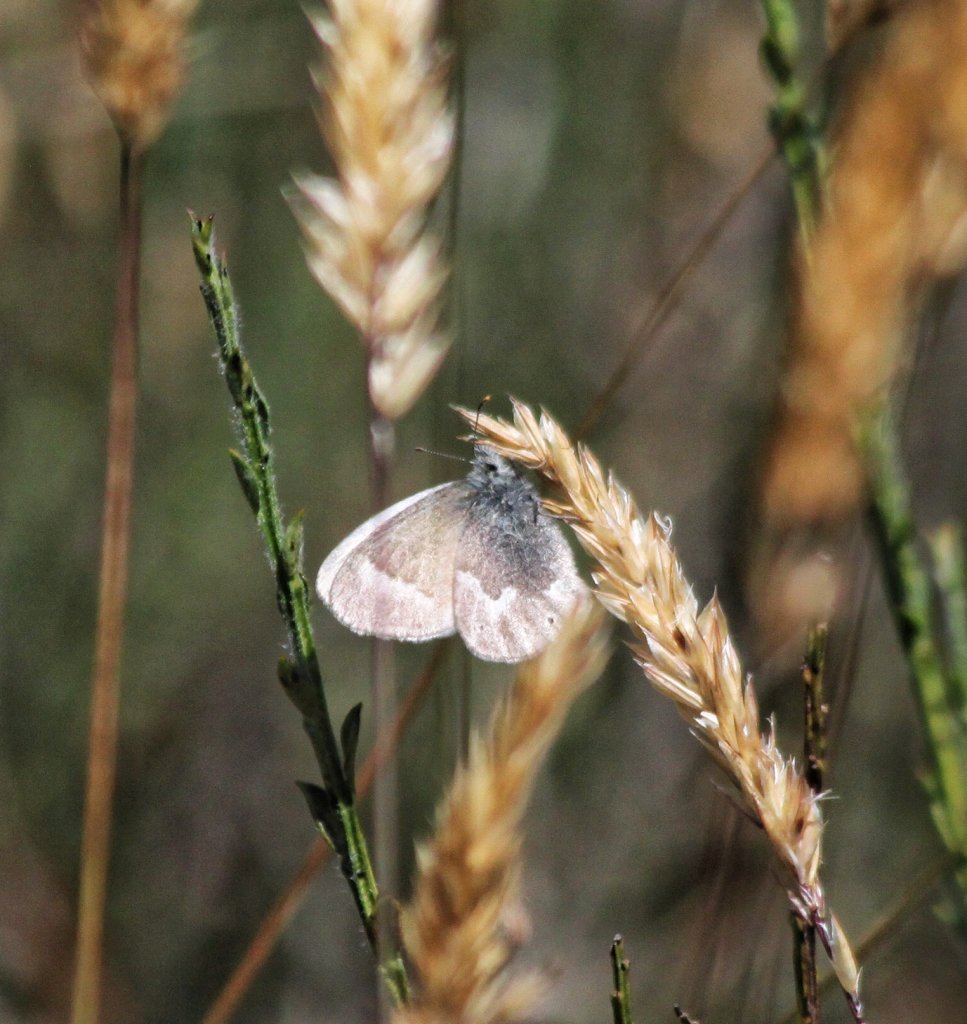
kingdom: Animalia
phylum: Arthropoda
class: Insecta
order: Lepidoptera
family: Nymphalidae
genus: Coenonympha
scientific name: Coenonympha tullia
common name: Large Heath
